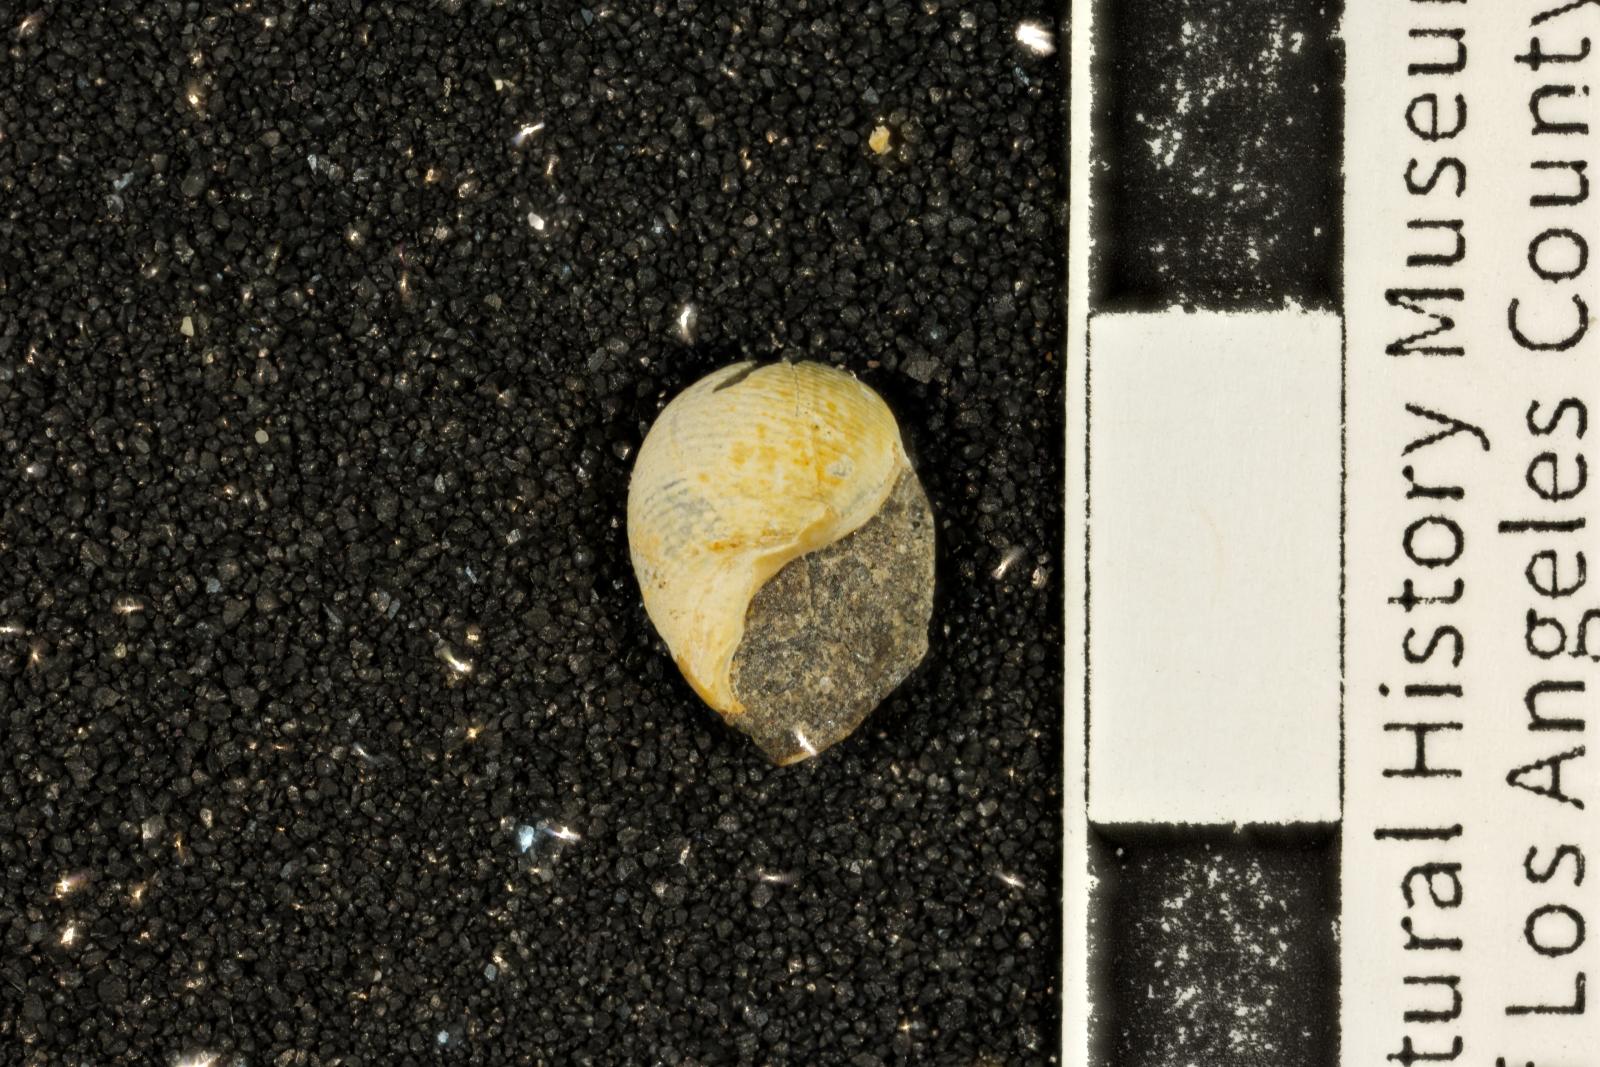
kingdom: Animalia
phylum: Mollusca
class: Gastropoda
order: Cephalaspidea
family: Ringiculidae
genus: Biplica
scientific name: Biplica heteroplicata
